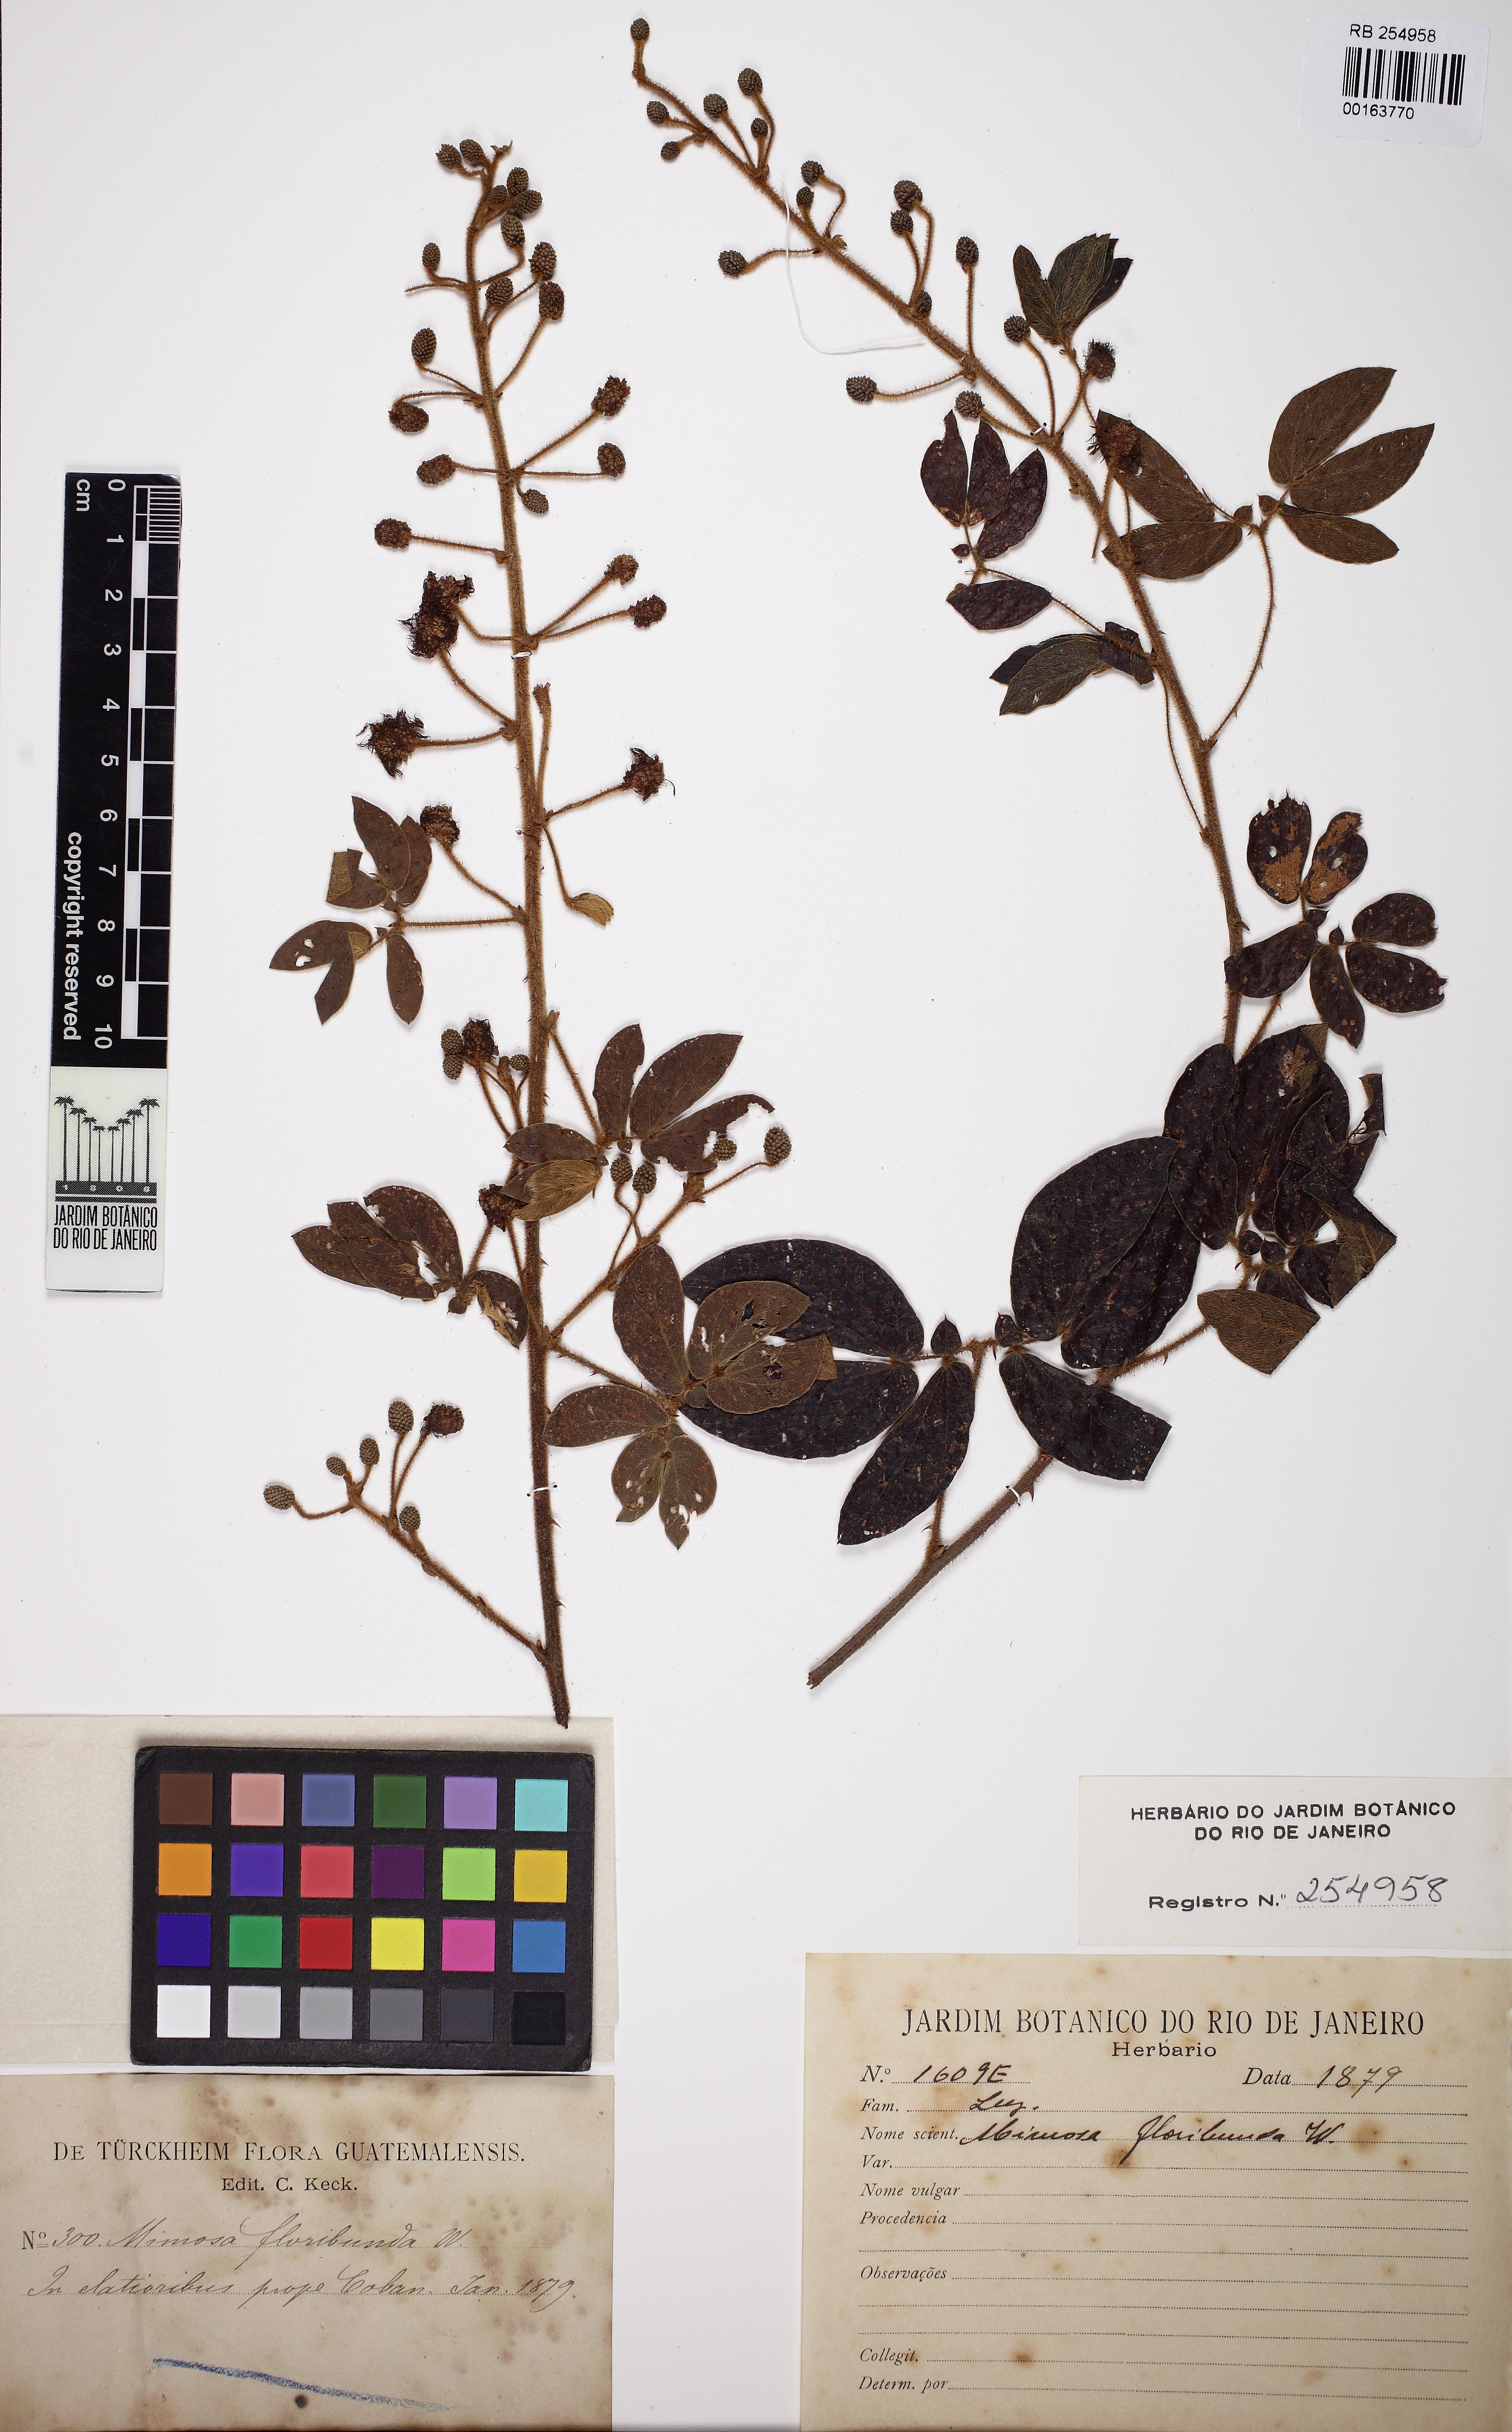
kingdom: Plantae
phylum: Tracheophyta
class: Magnoliopsida
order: Fabales
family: Fabaceae
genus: Mimosa
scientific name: Mimosa albida
